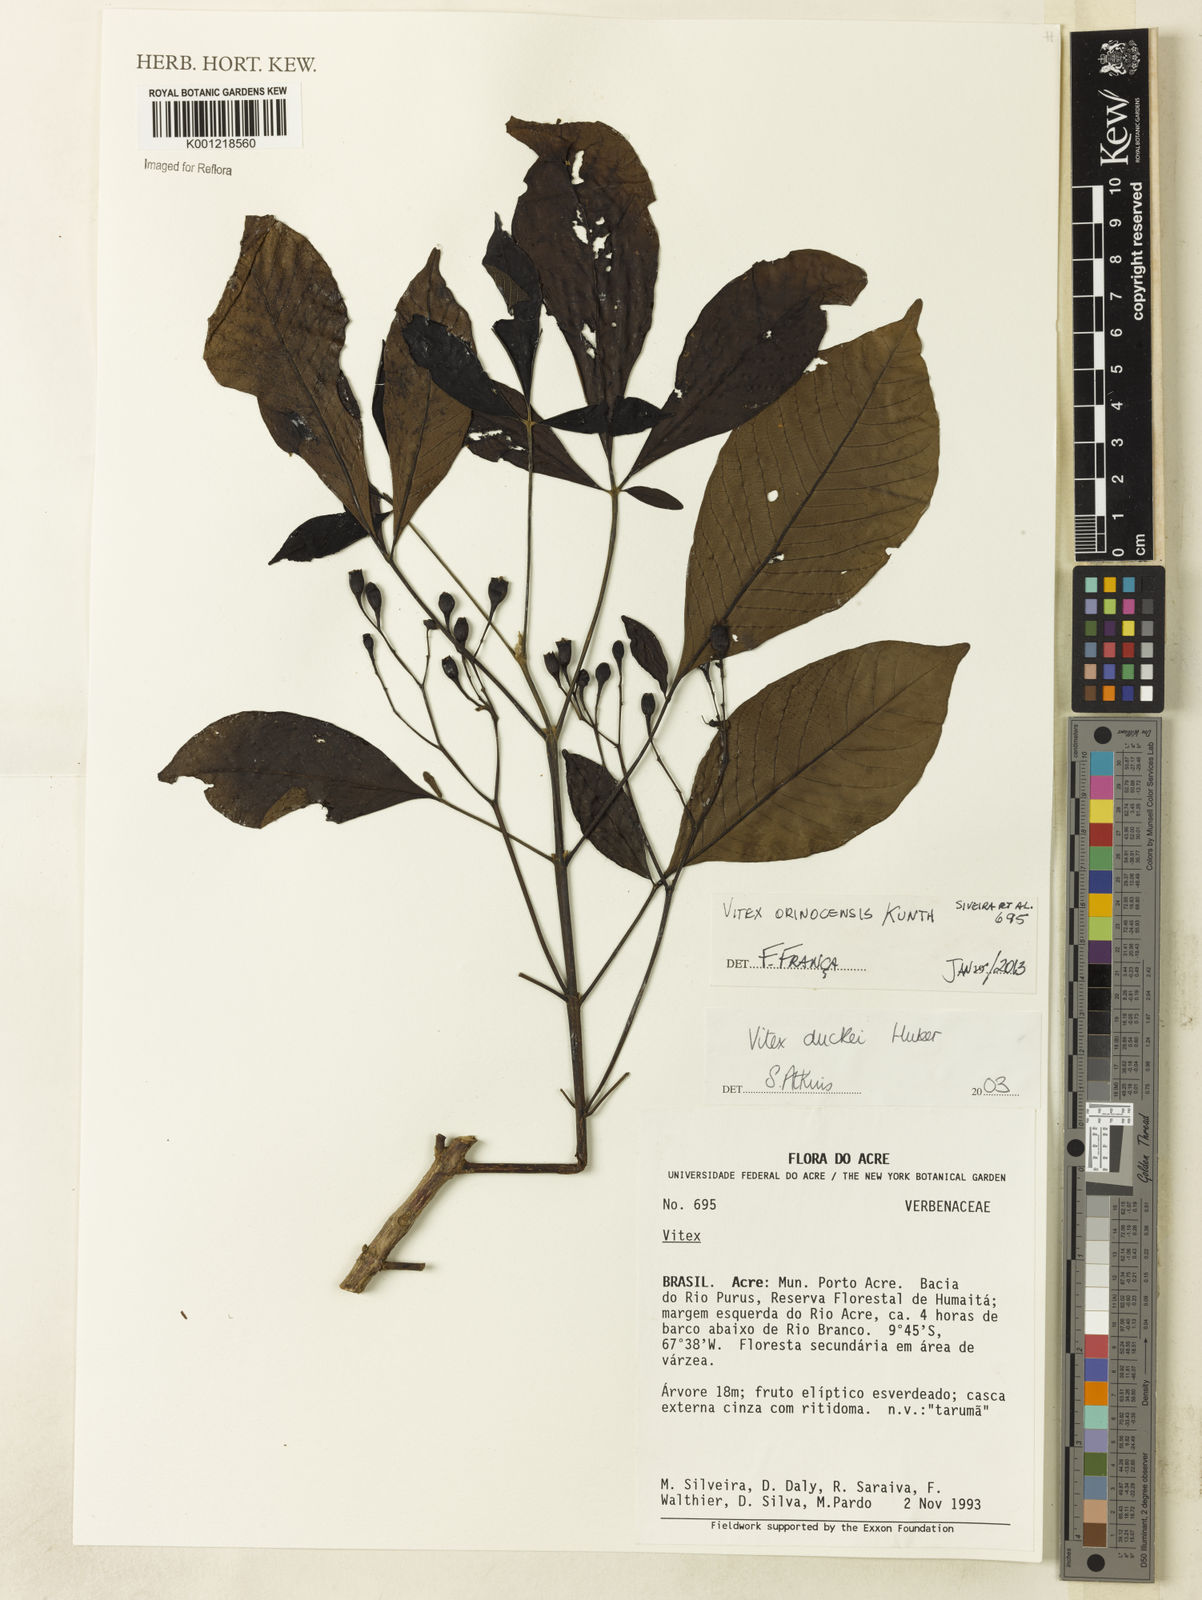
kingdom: Plantae
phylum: Tracheophyta
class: Magnoliopsida
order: Lamiales
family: Lamiaceae
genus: Vitex
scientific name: Vitex orinocensis
